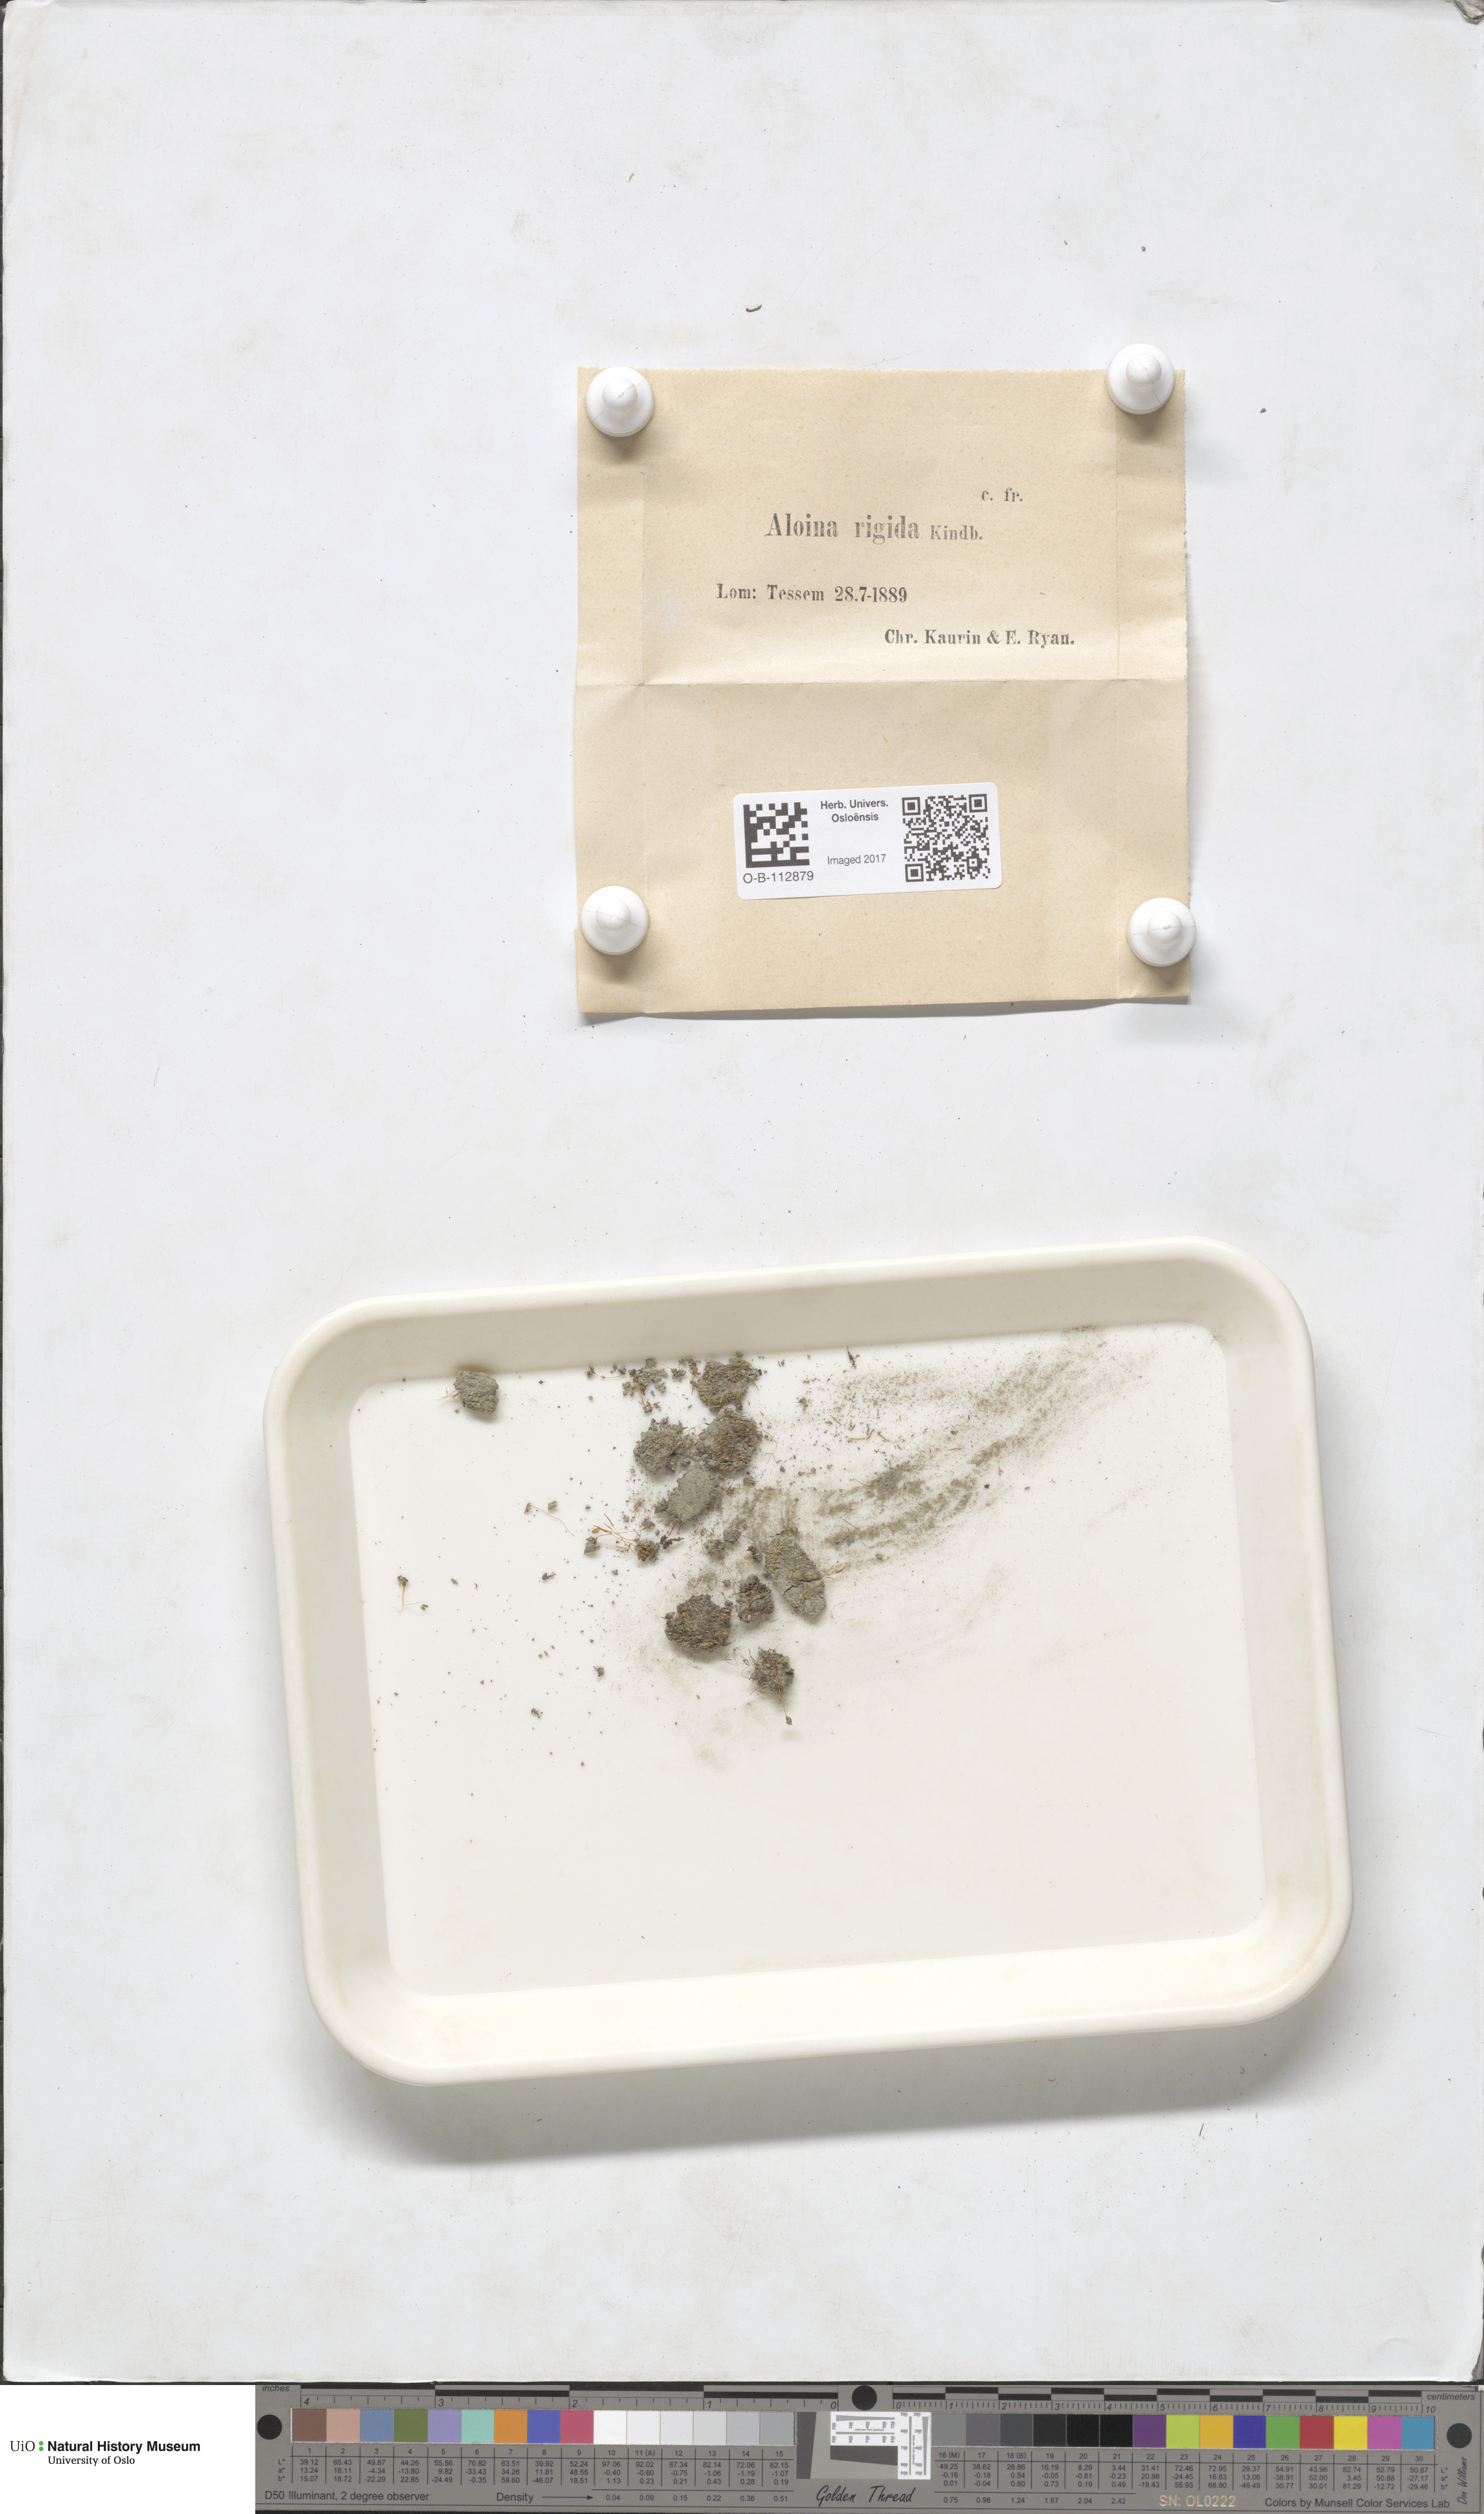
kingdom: Plantae
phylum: Bryophyta
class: Bryopsida
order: Pottiales
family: Pottiaceae
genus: Aloina
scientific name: Aloina rigida
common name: Rigid screw moss
